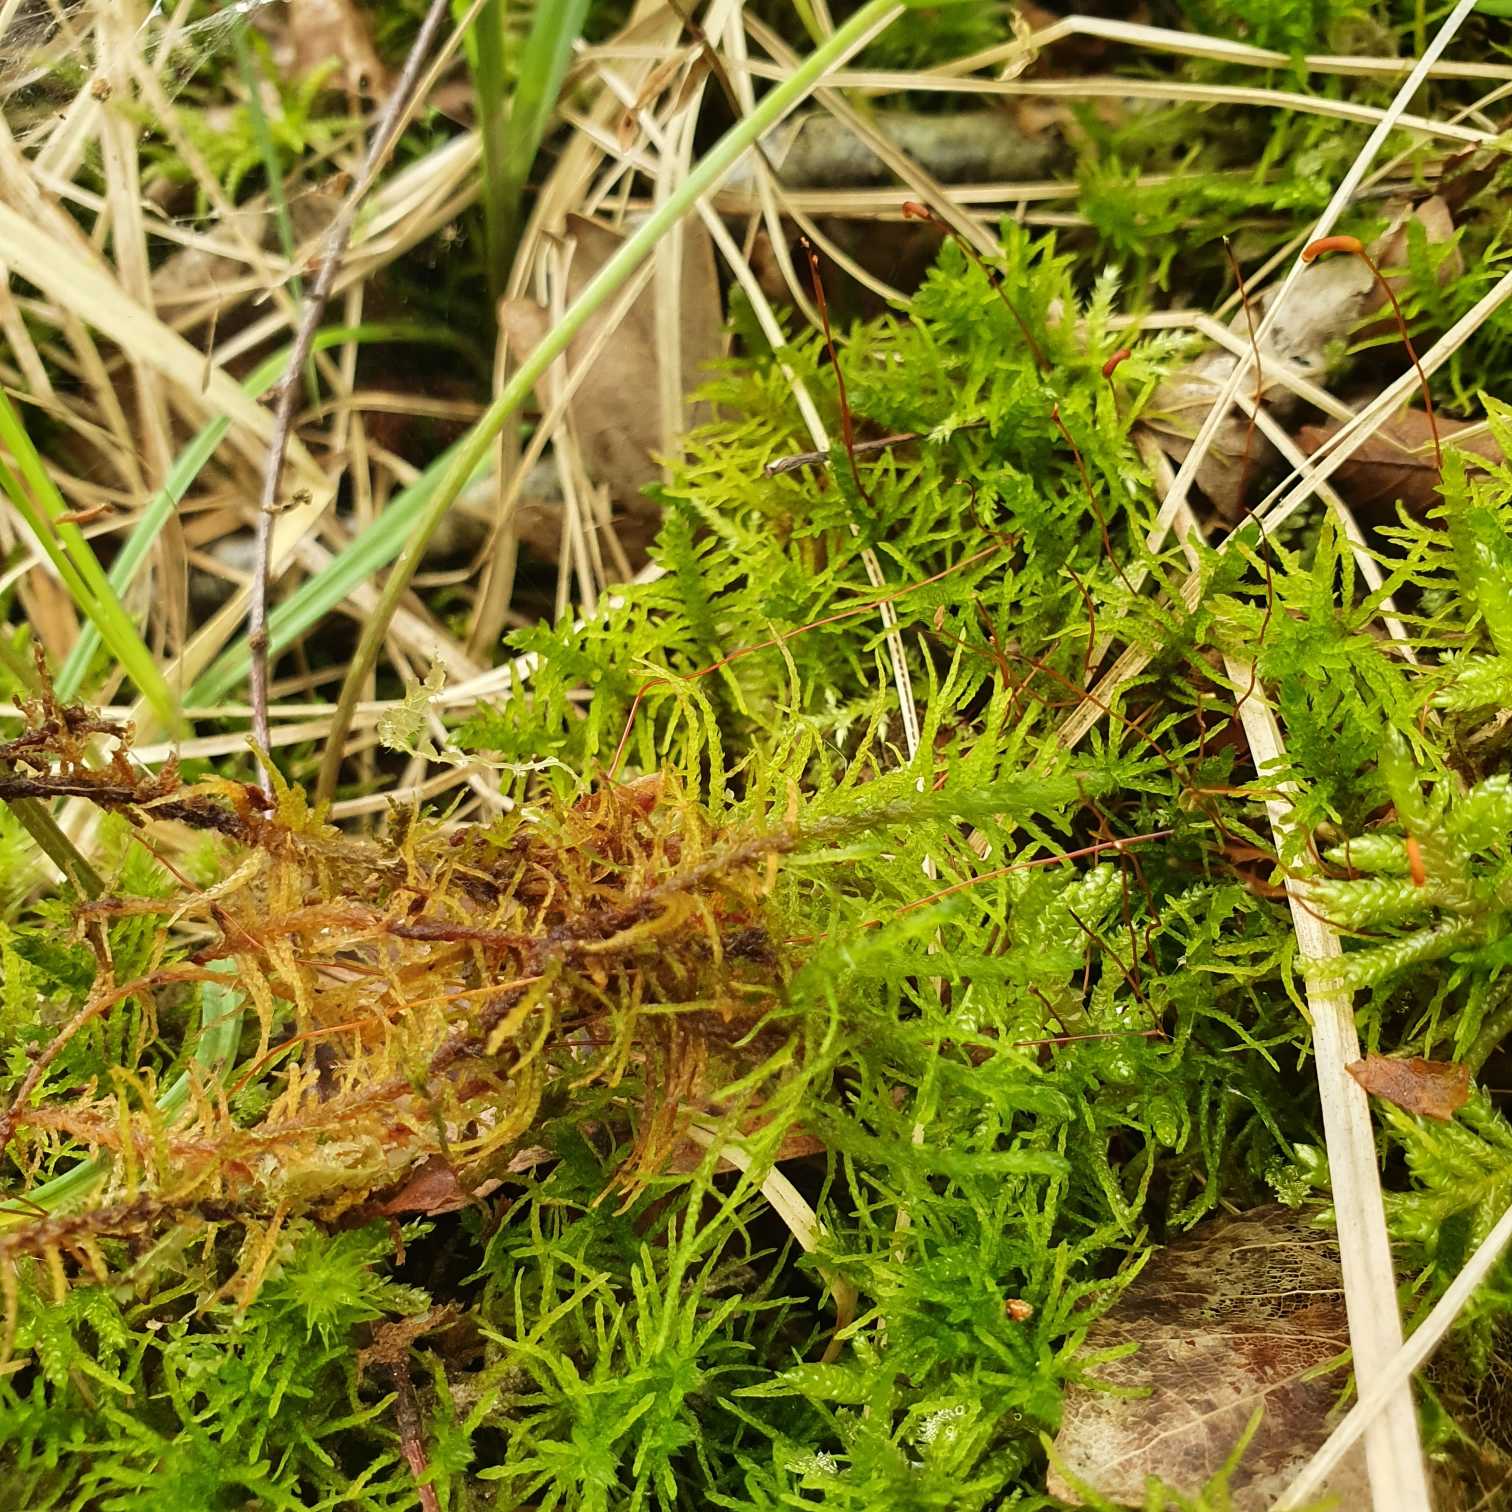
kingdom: Plantae
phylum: Bryophyta
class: Bryopsida
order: Hypnales
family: Helodiaceae
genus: Helodium
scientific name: Helodium blandowii
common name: Kær-gyldenmos
